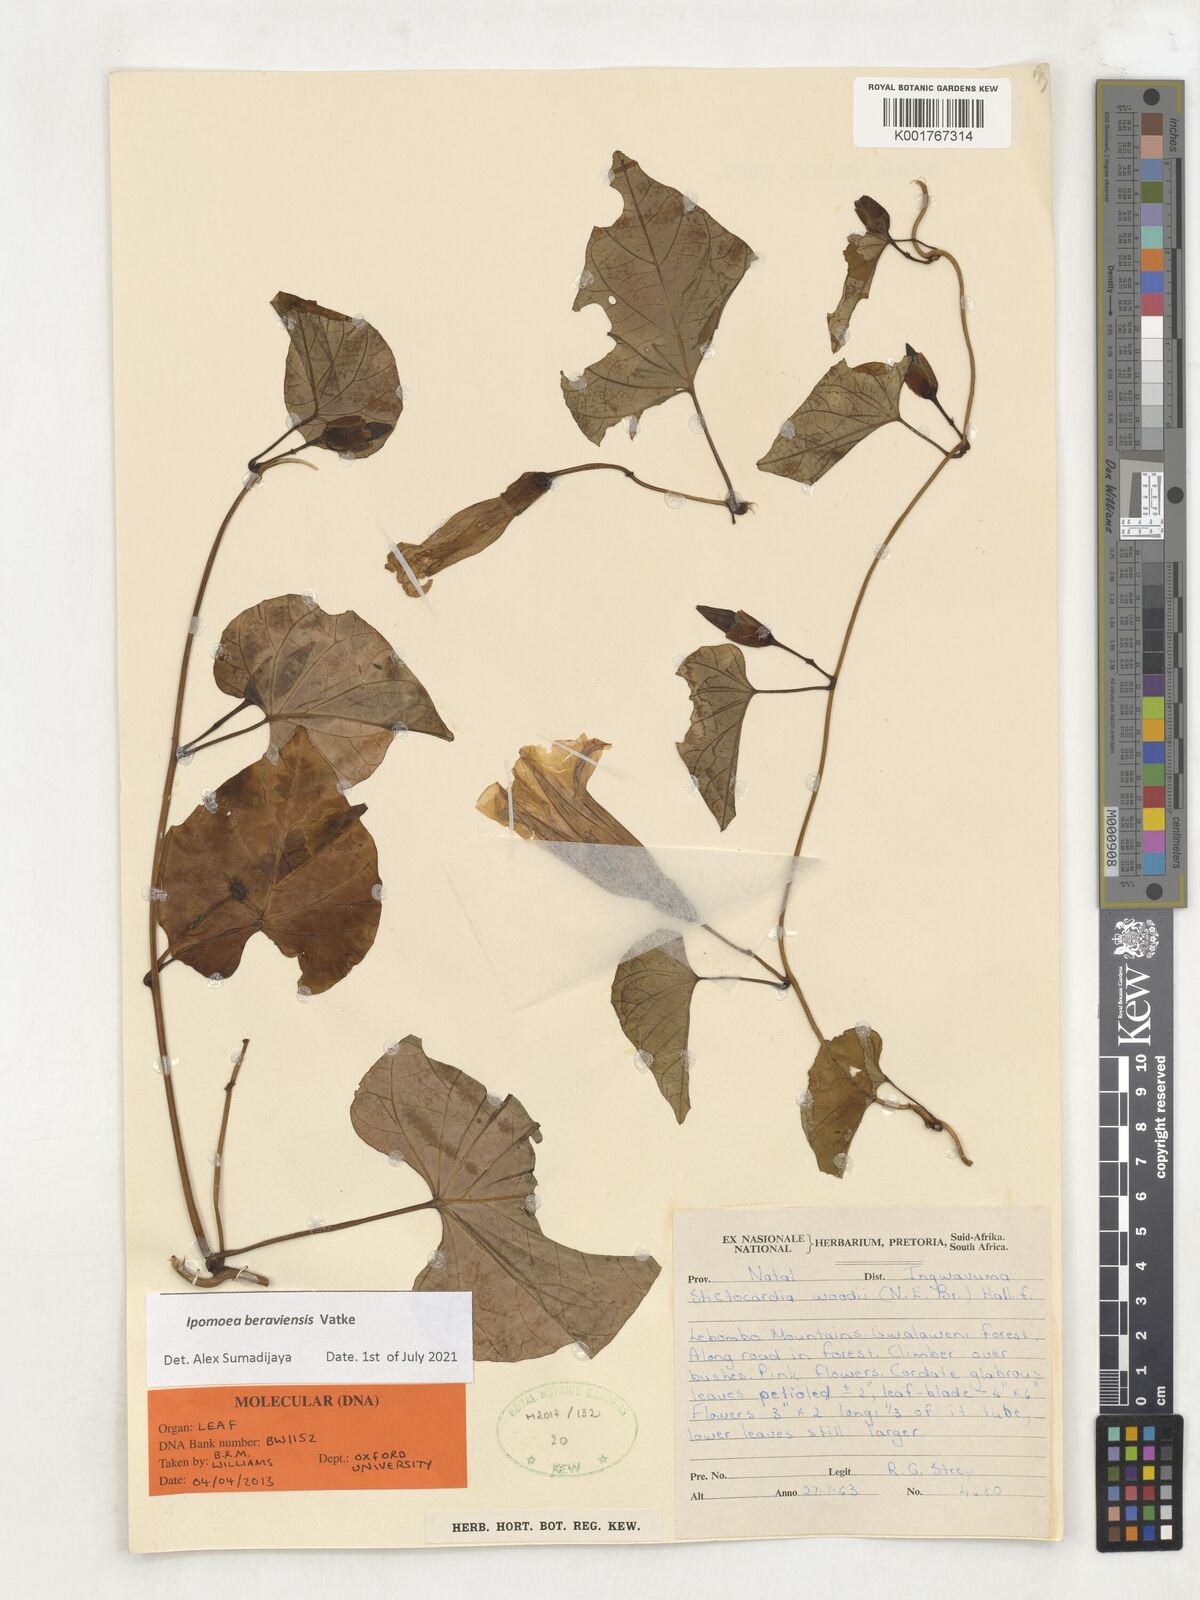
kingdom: Plantae
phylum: Tracheophyta
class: Magnoliopsida
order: Solanales
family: Convolvulaceae
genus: Stictocardia
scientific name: Stictocardia laxiflora
